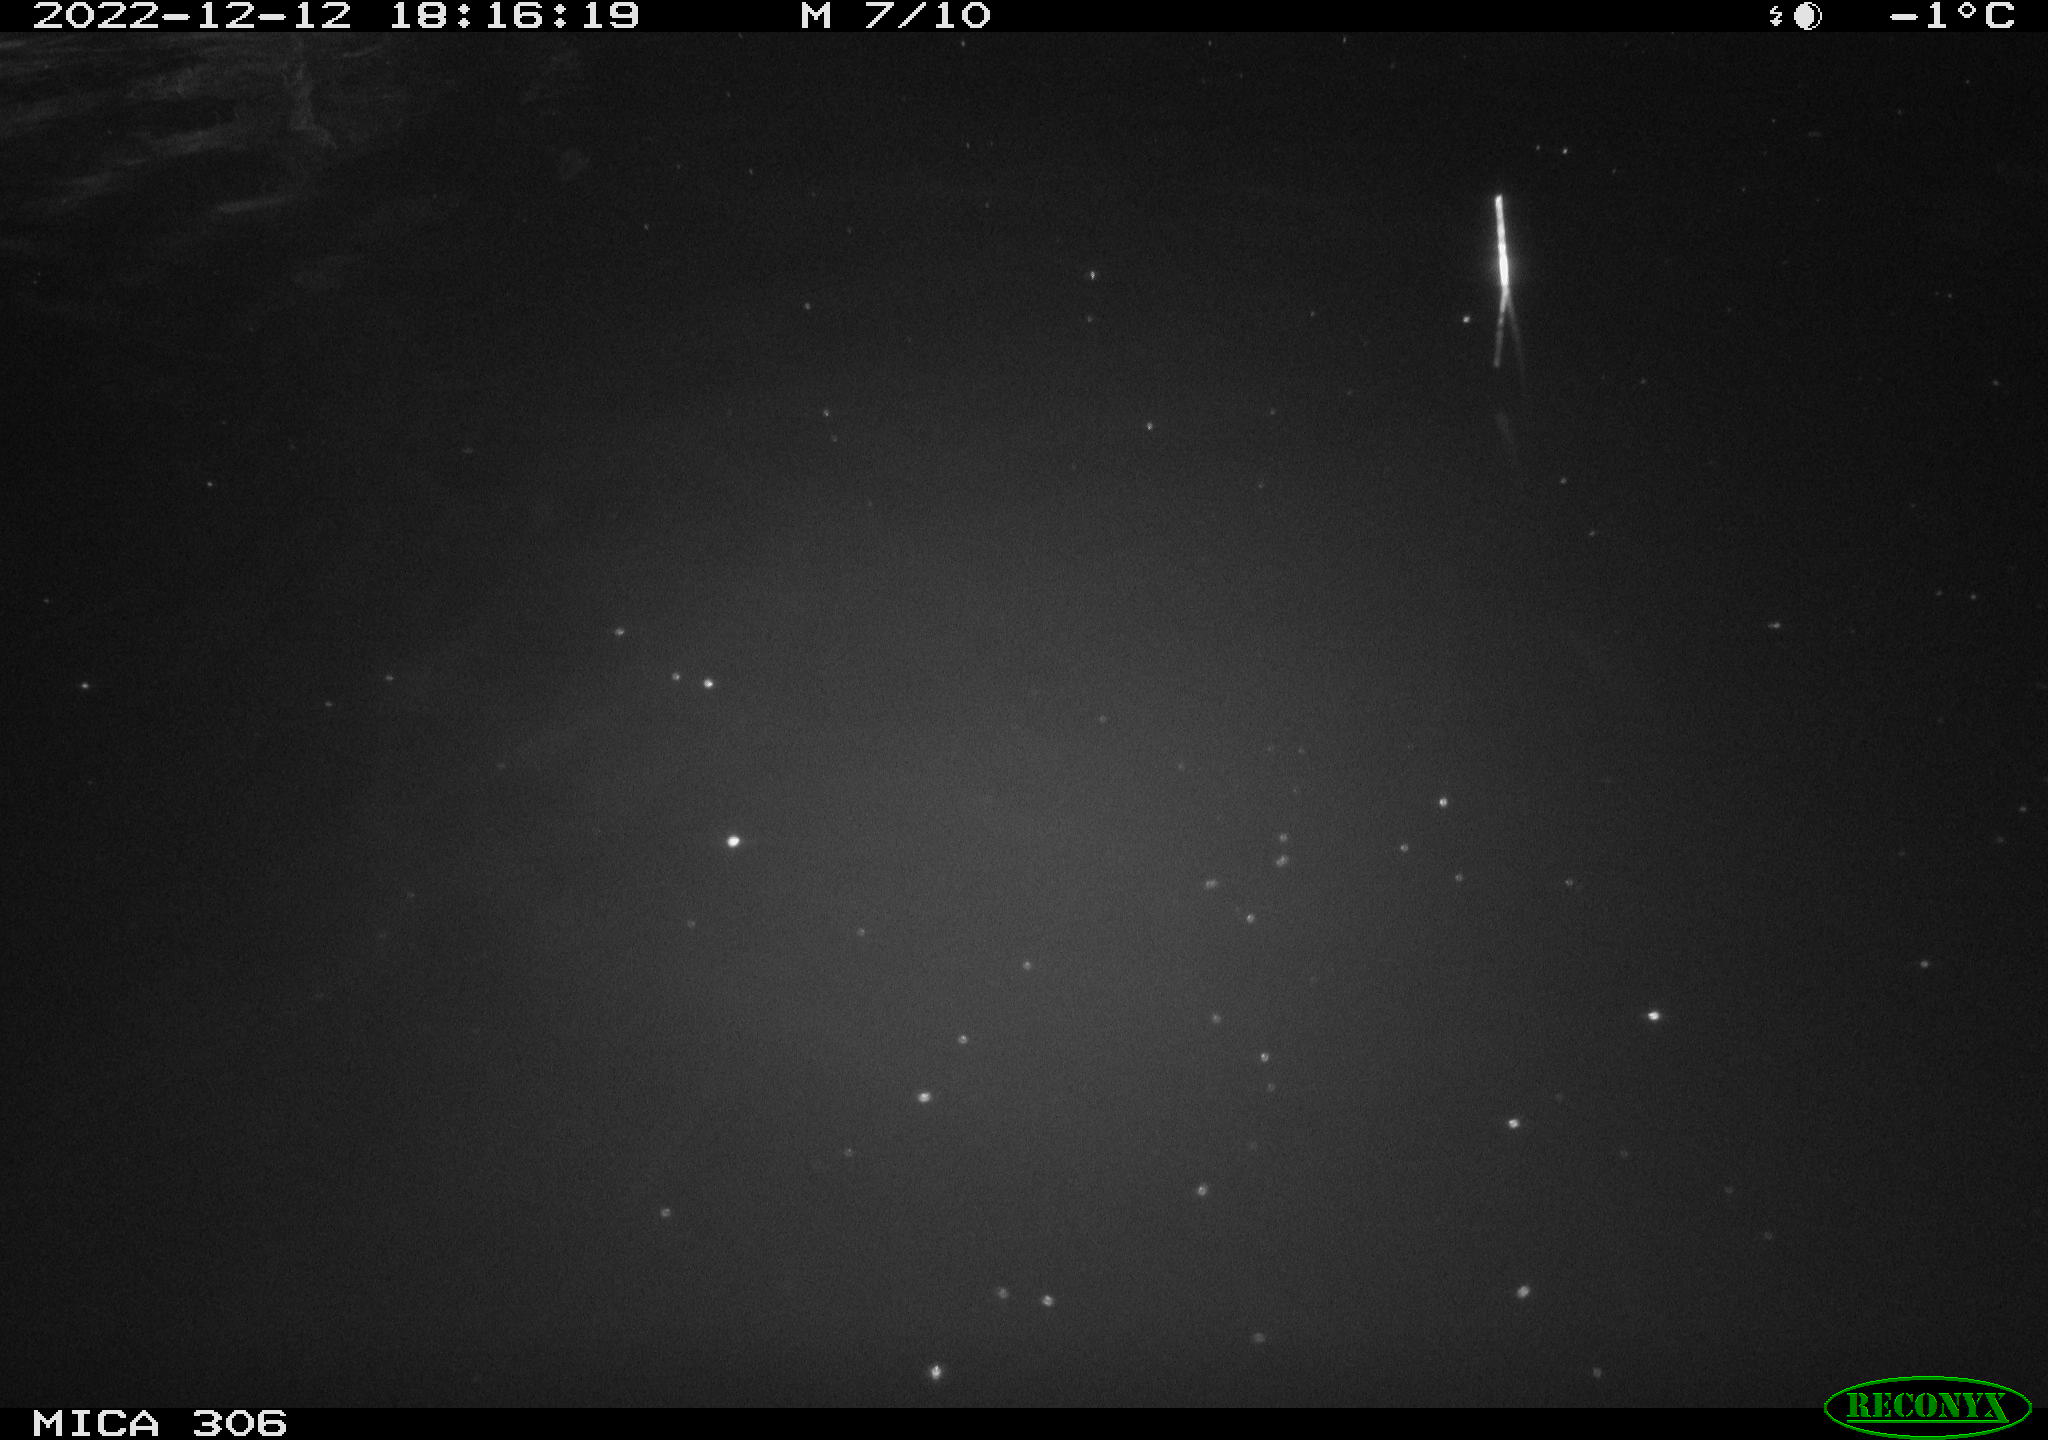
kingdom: Animalia
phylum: Chordata
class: Mammalia
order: Rodentia
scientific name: Rodentia
